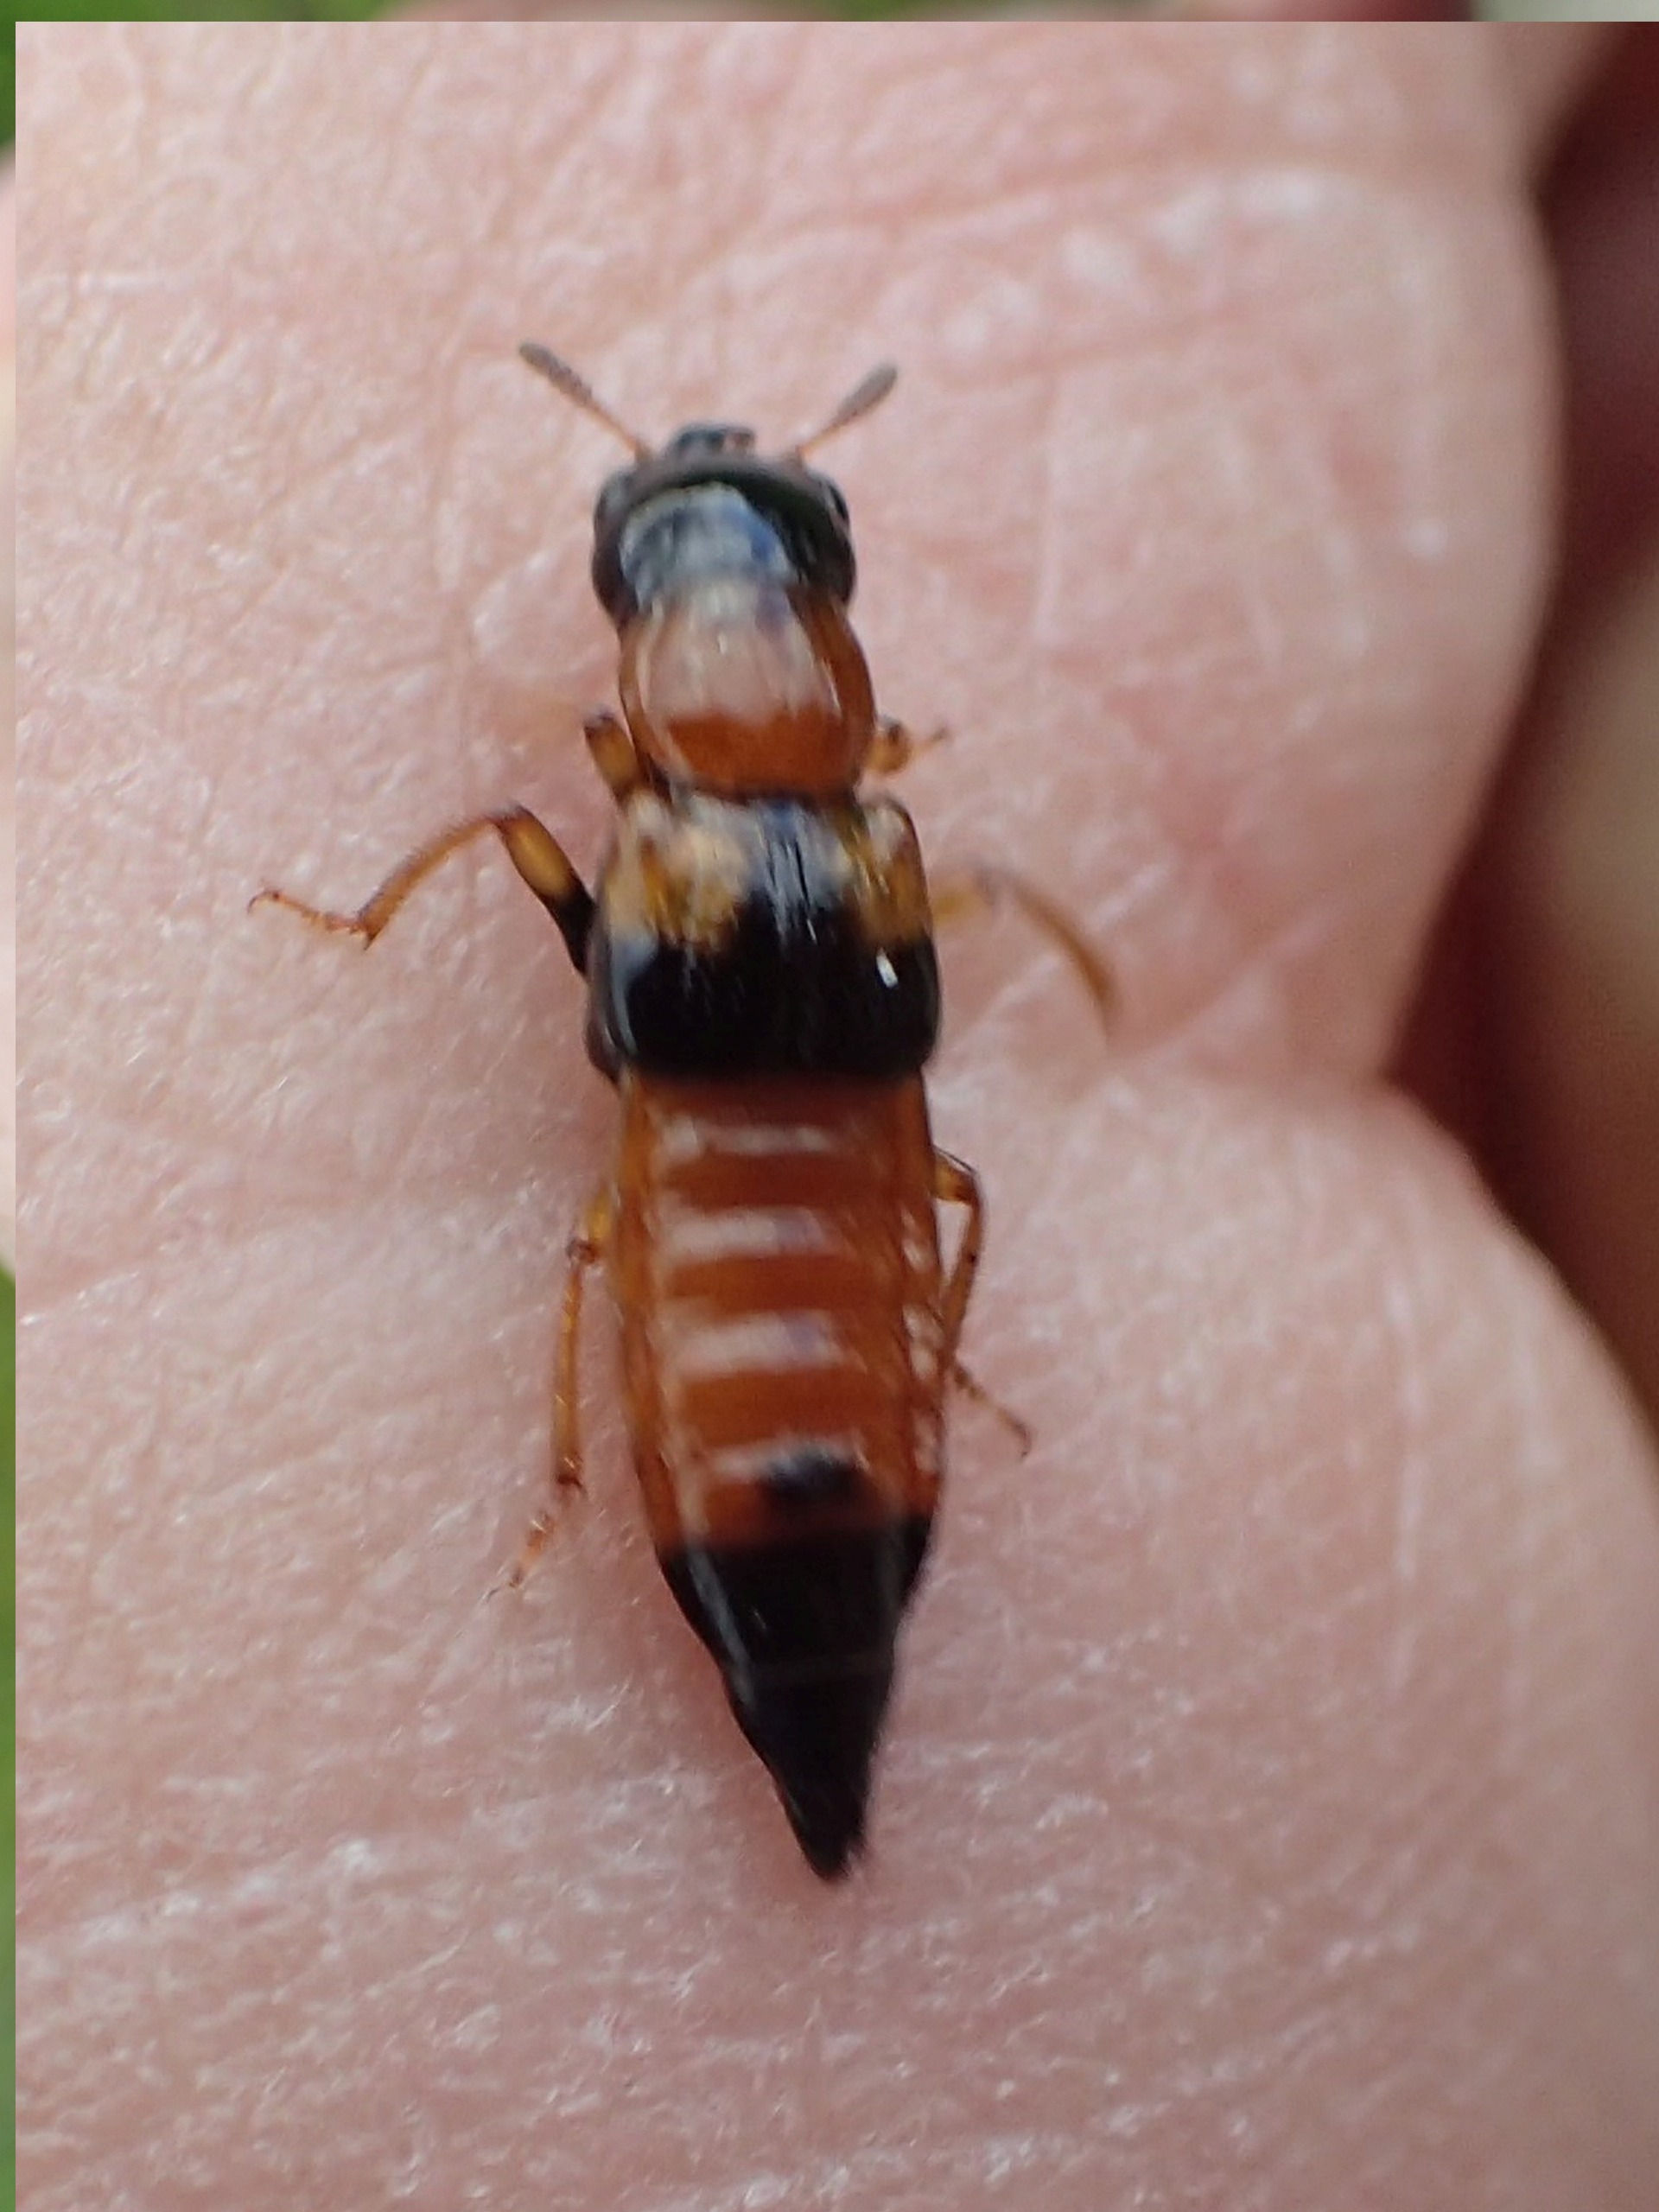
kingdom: Animalia
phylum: Arthropoda
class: Insecta
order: Coleoptera
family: Staphylinidae
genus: Oxyporus
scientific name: Oxyporus rufus
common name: Ildrovbille
